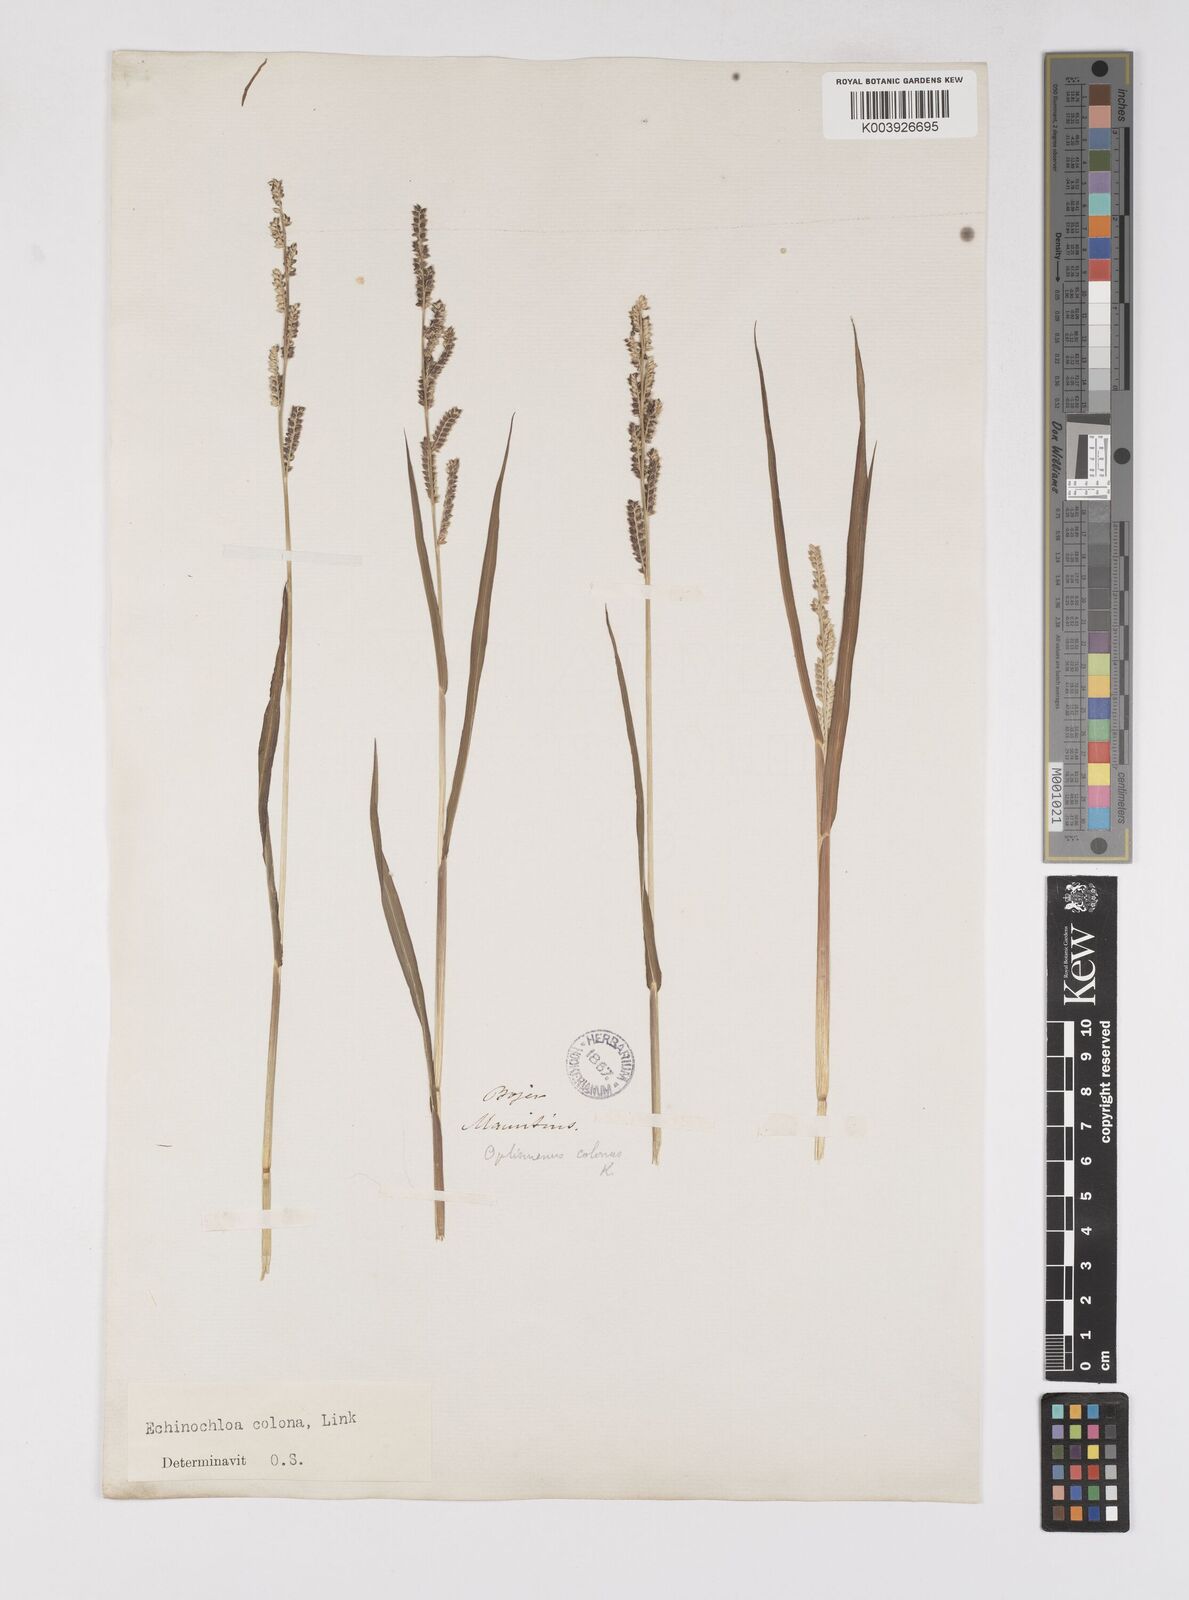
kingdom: Plantae
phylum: Tracheophyta
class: Liliopsida
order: Poales
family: Poaceae
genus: Echinochloa
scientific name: Echinochloa colonum
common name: Jungle rice
